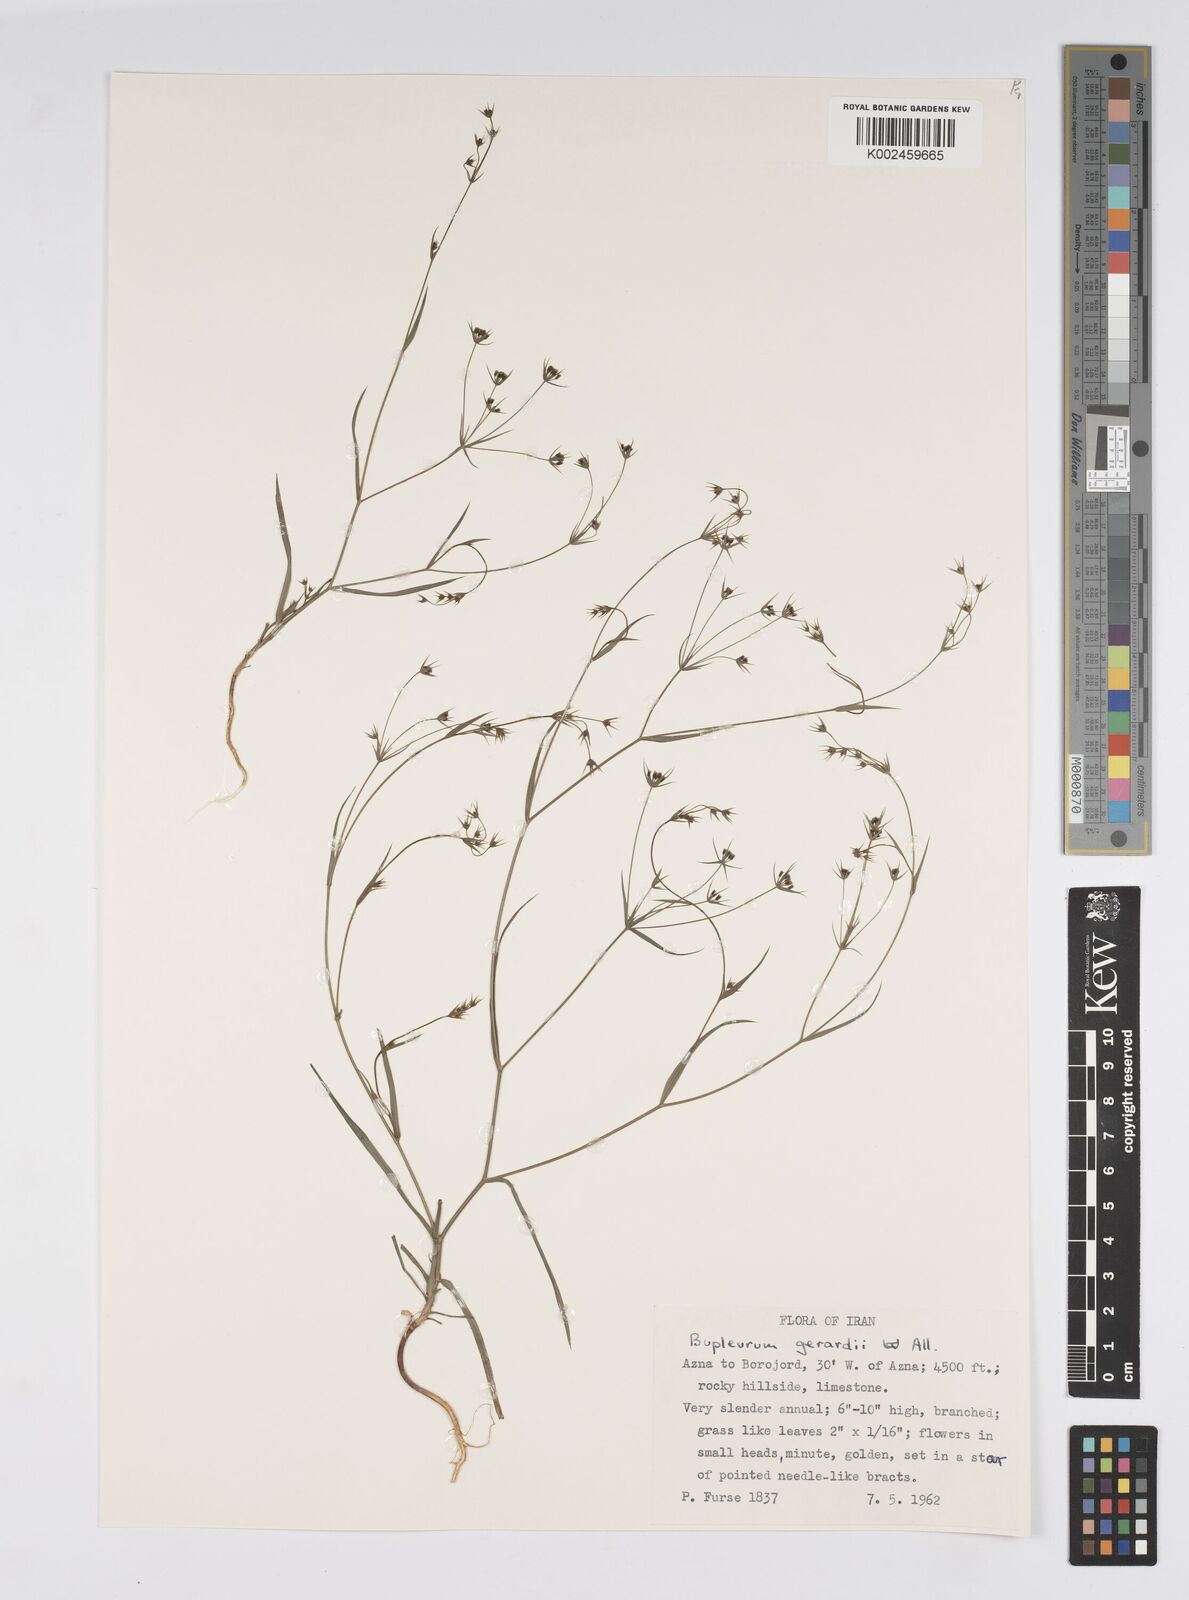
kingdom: Plantae
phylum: Tracheophyta
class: Magnoliopsida
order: Apiales
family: Apiaceae
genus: Bupleurum
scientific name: Bupleurum gerardi
